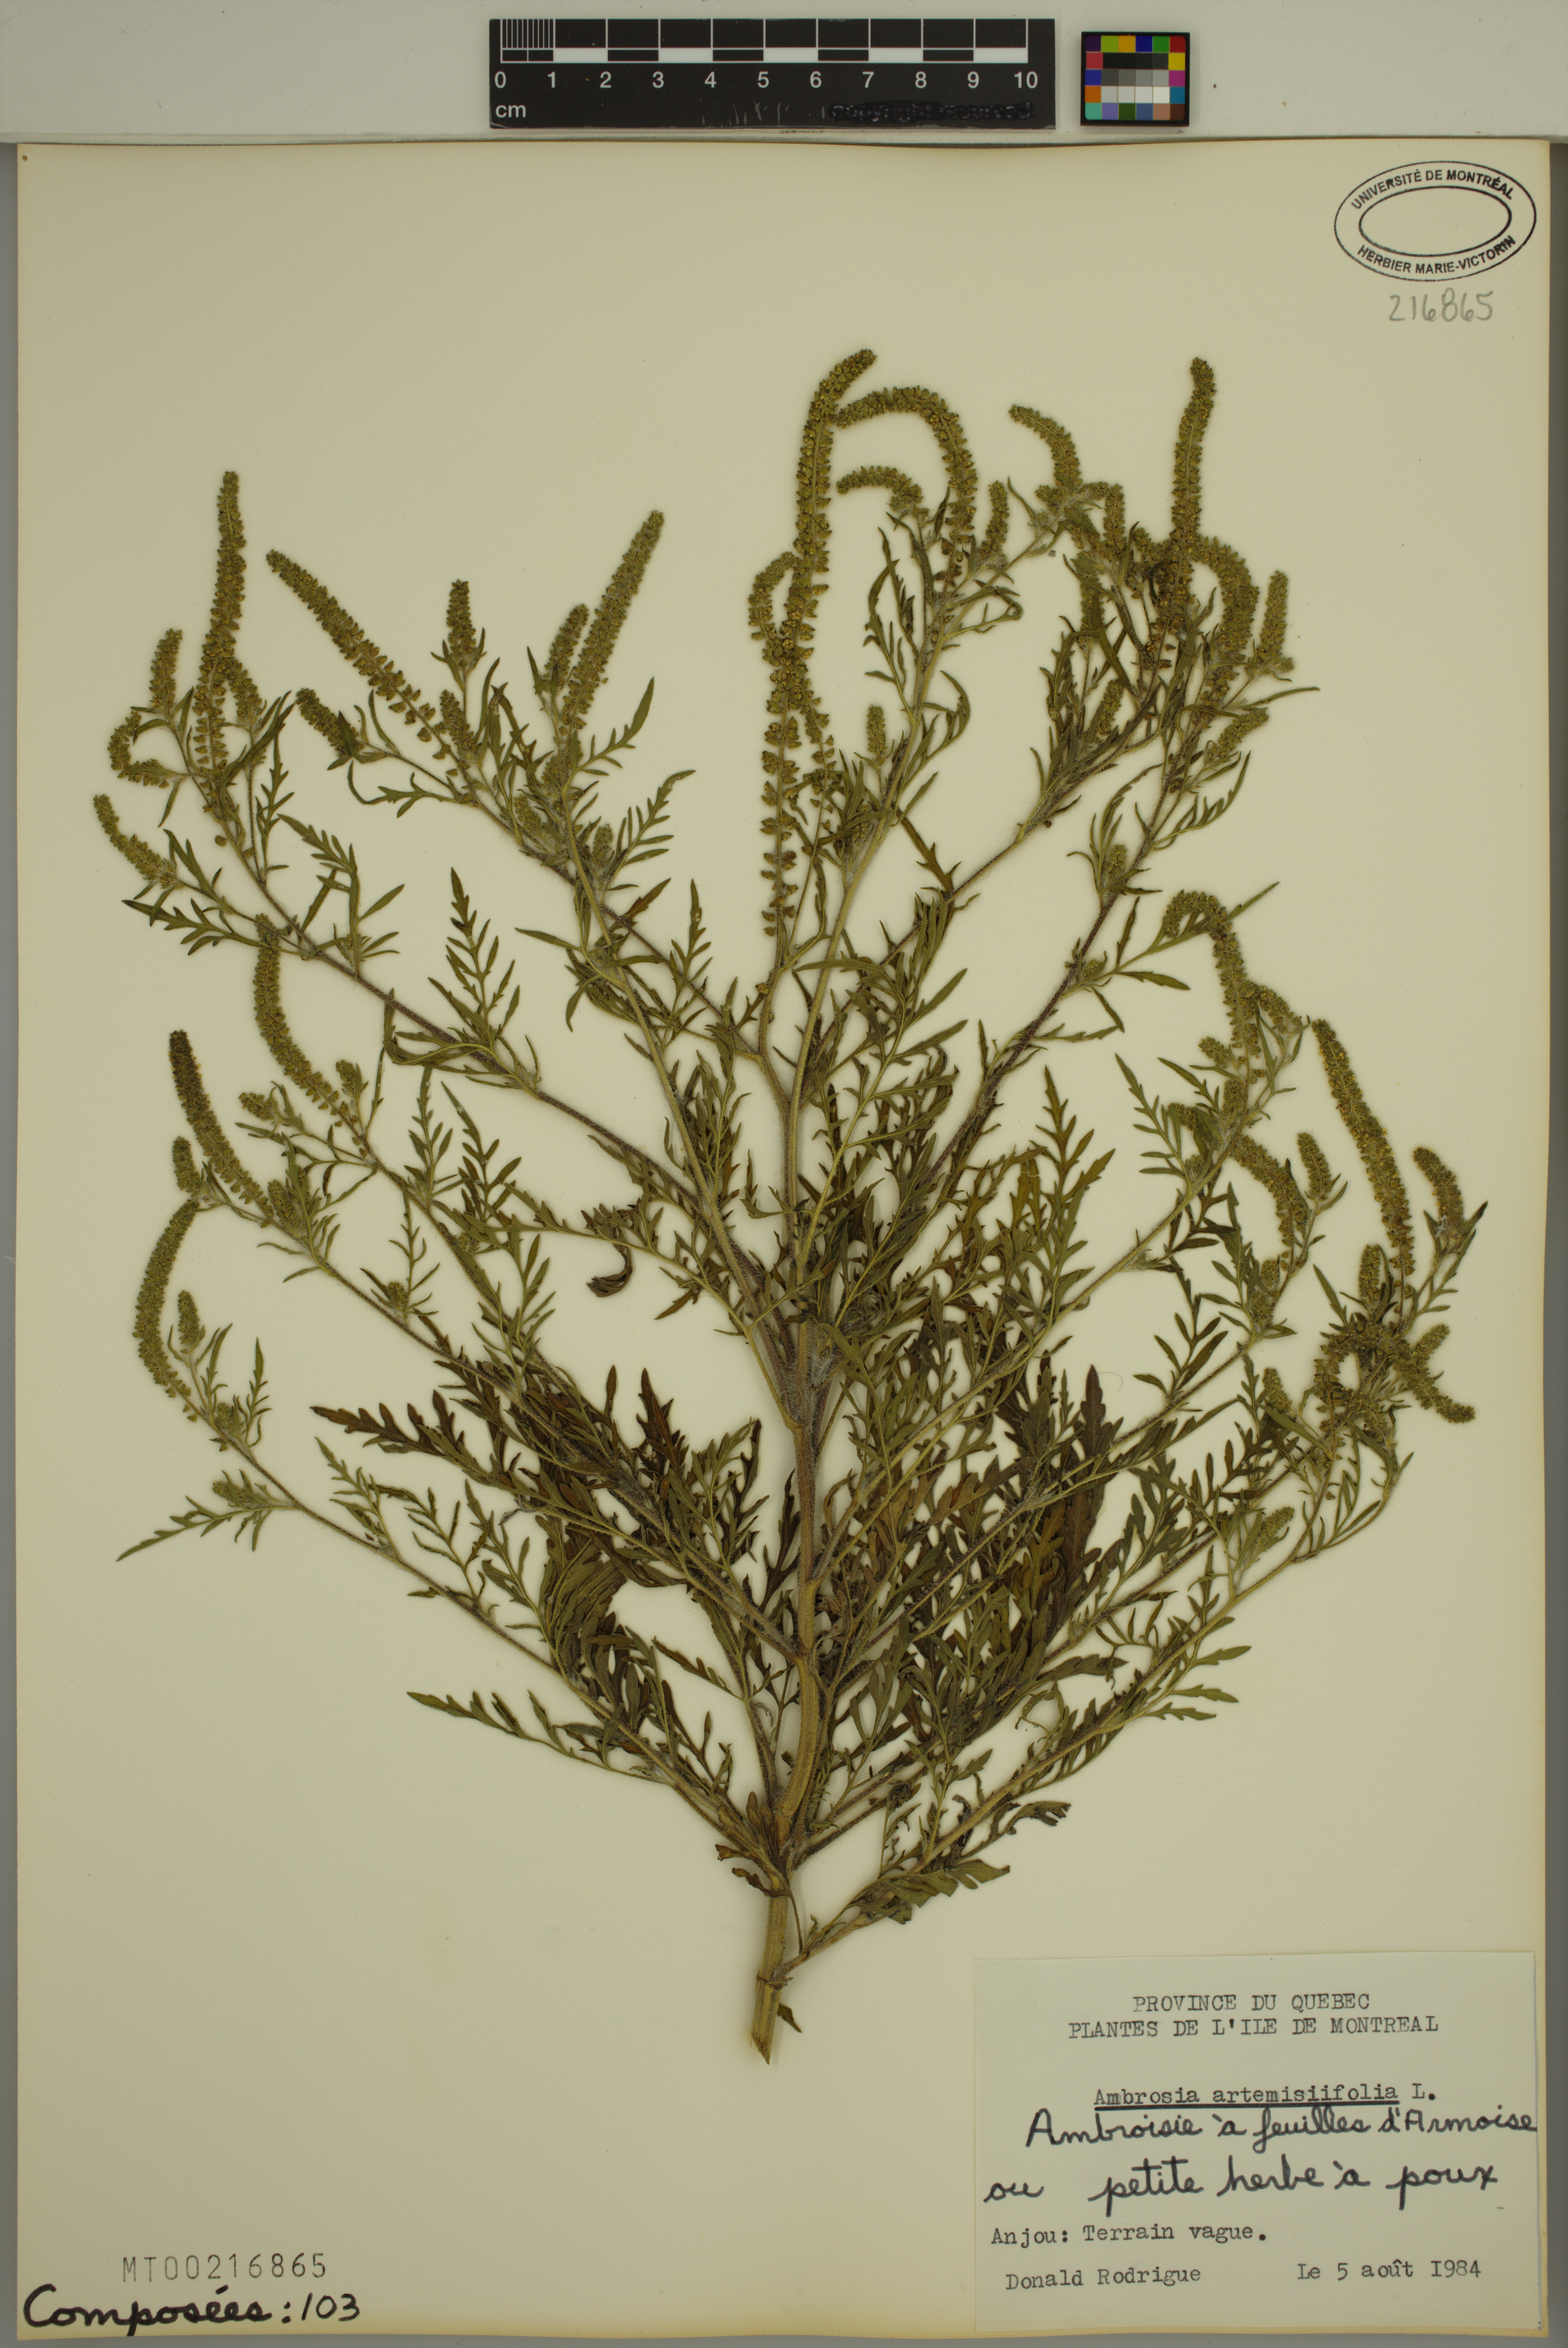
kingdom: Plantae
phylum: Tracheophyta
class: Magnoliopsida
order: Asterales
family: Asteraceae
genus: Ambrosia
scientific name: Ambrosia artemisiifolia
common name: Annual ragweed
